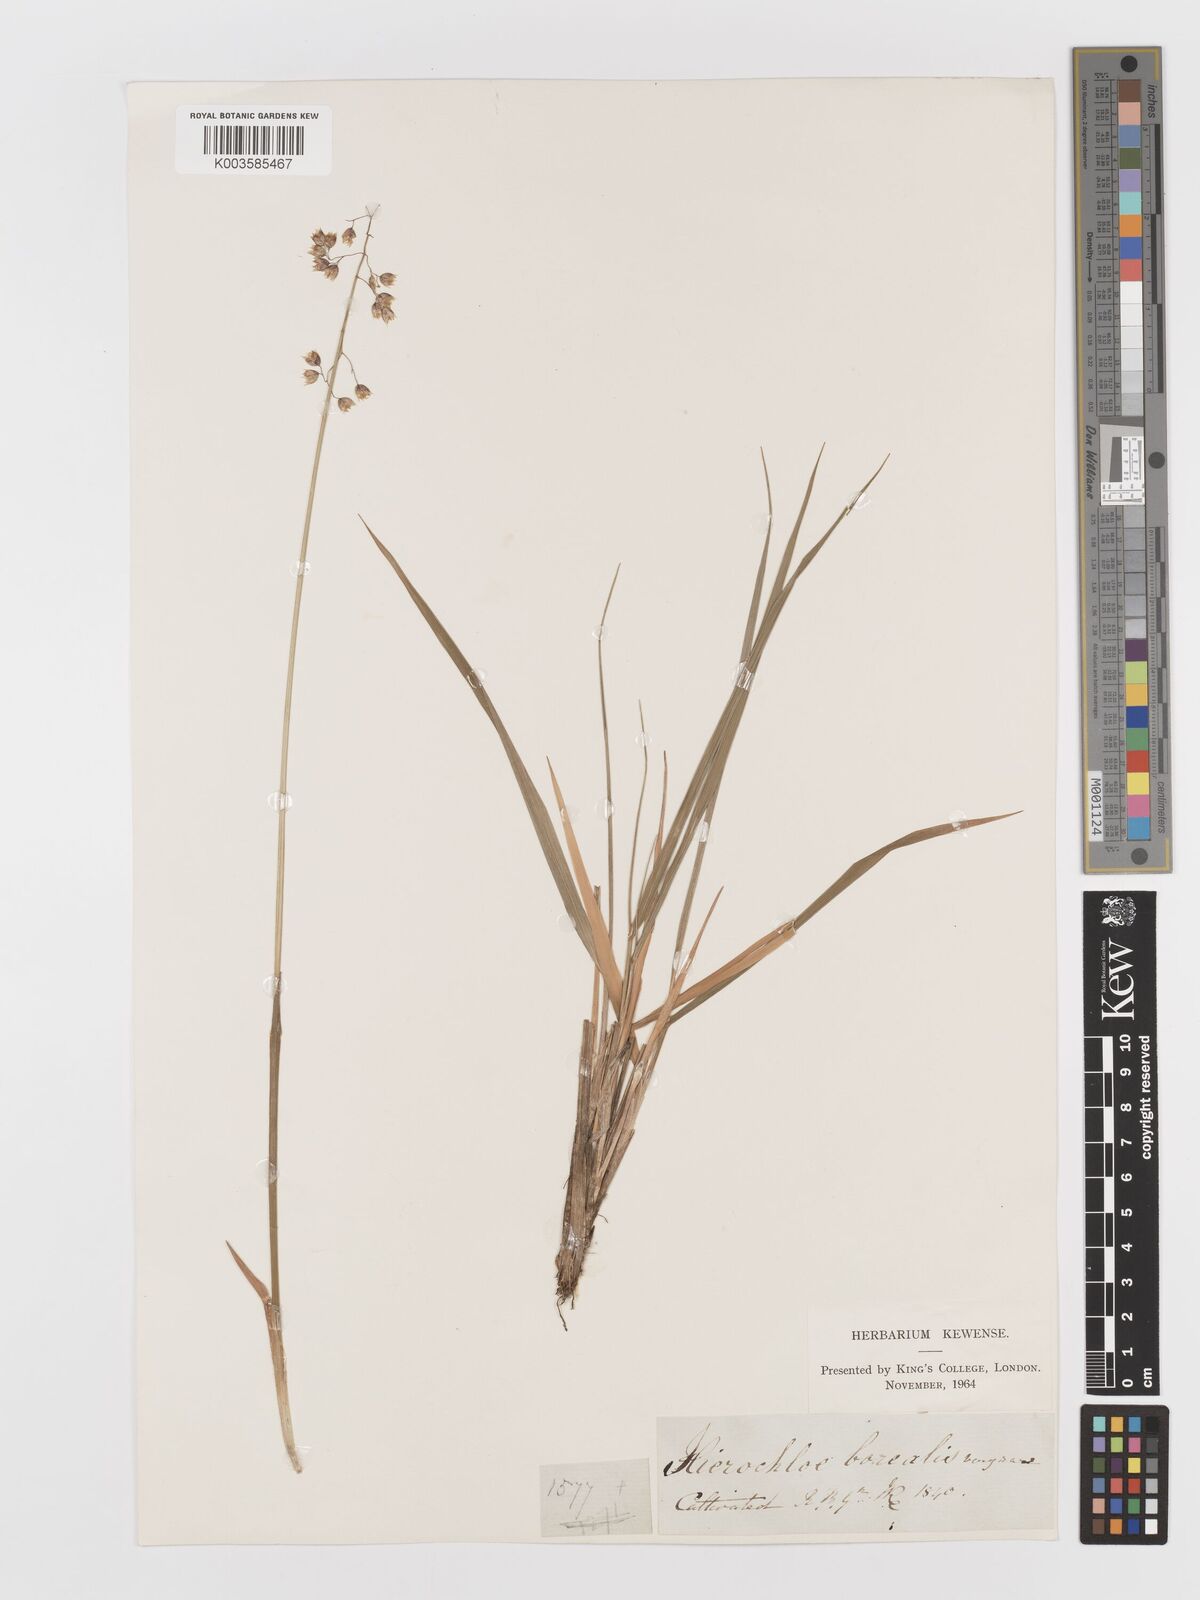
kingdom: Plantae
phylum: Tracheophyta
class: Liliopsida
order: Poales
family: Poaceae
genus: Anthoxanthum
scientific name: Anthoxanthum nitens
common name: Holy grass
